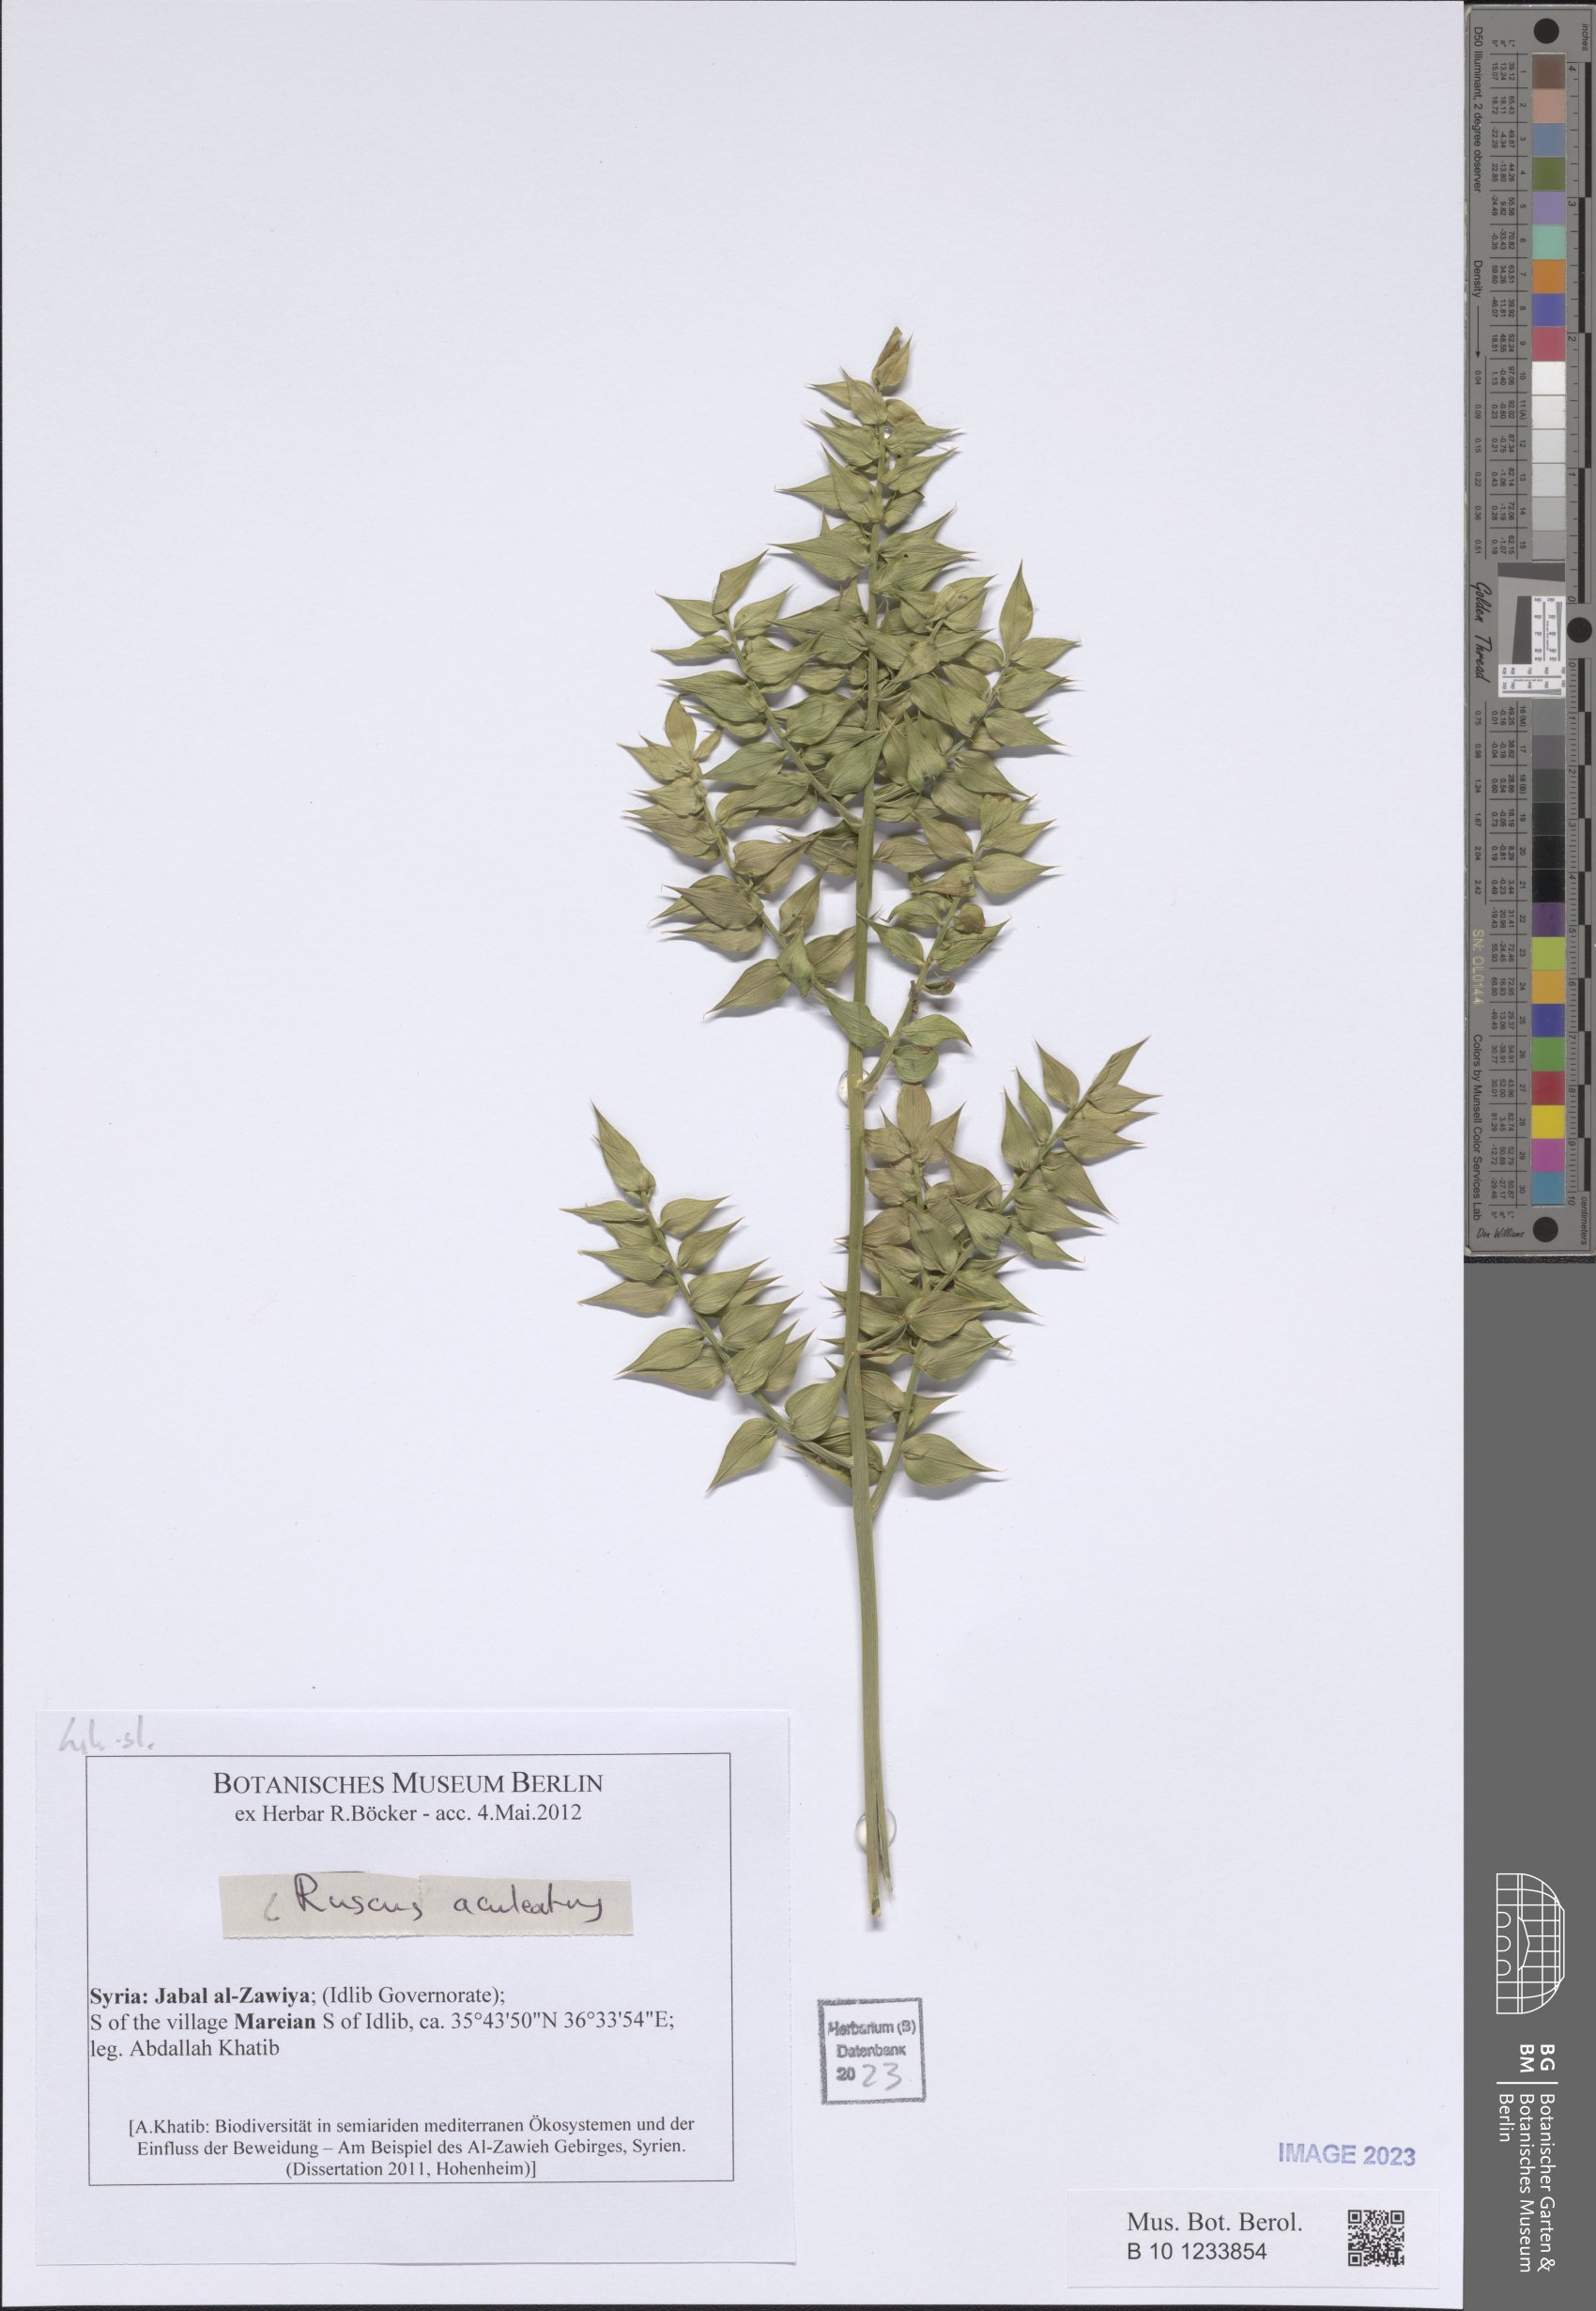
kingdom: Plantae
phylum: Tracheophyta
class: Liliopsida
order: Asparagales
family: Asparagaceae
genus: Ruscus
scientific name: Ruscus aculeatus
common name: Butcher's-broom
